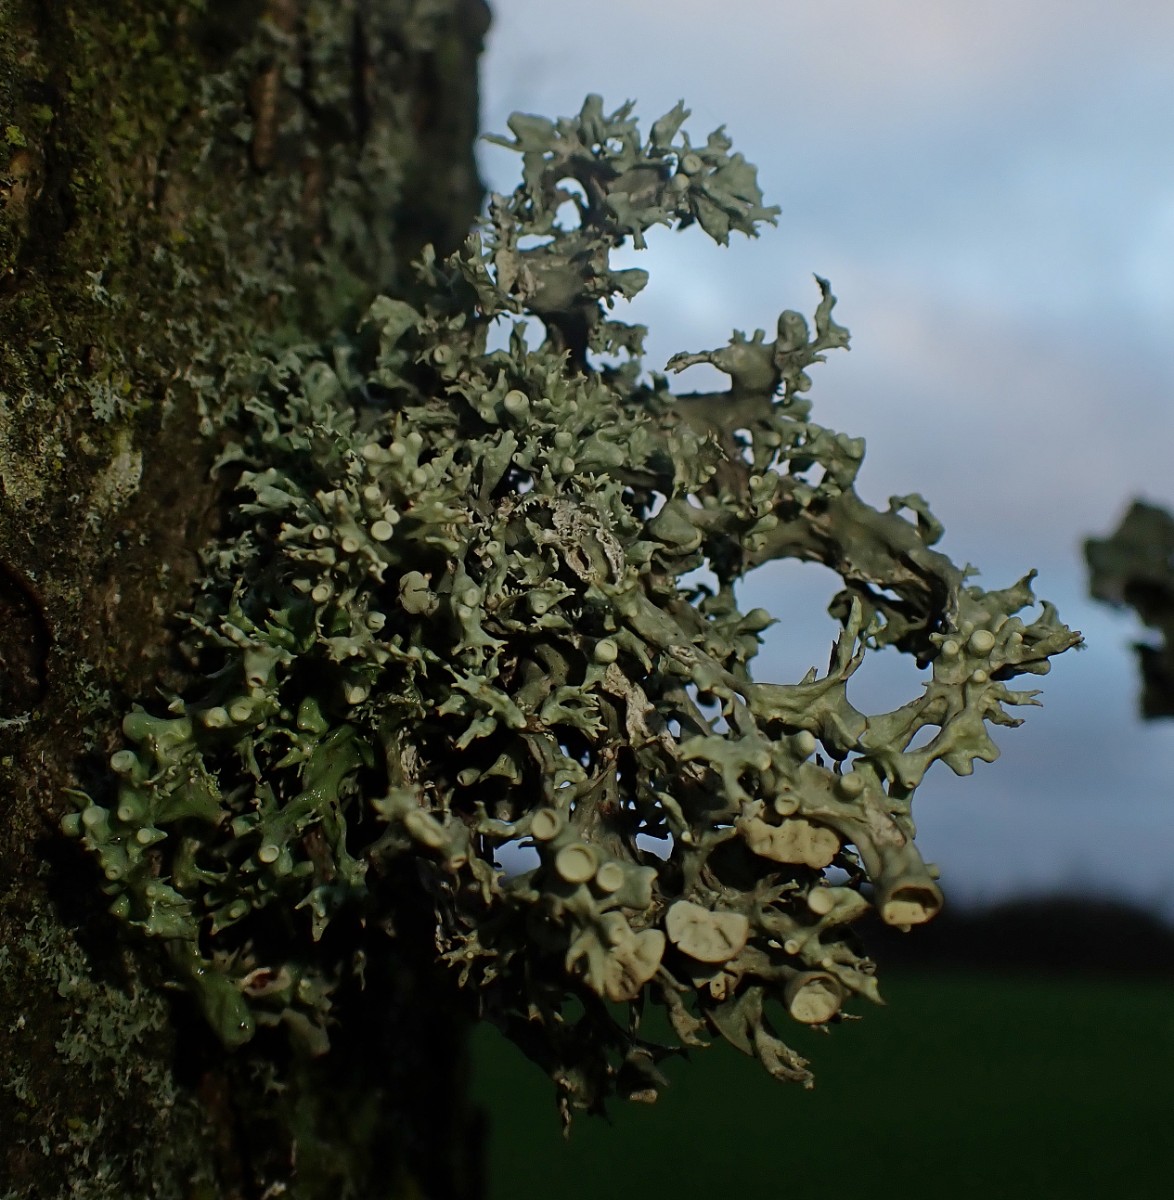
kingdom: Fungi
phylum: Ascomycota
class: Lecanoromycetes
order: Lecanorales
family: Ramalinaceae
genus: Ramalina
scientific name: Ramalina fastigiata
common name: tue-grenlav
